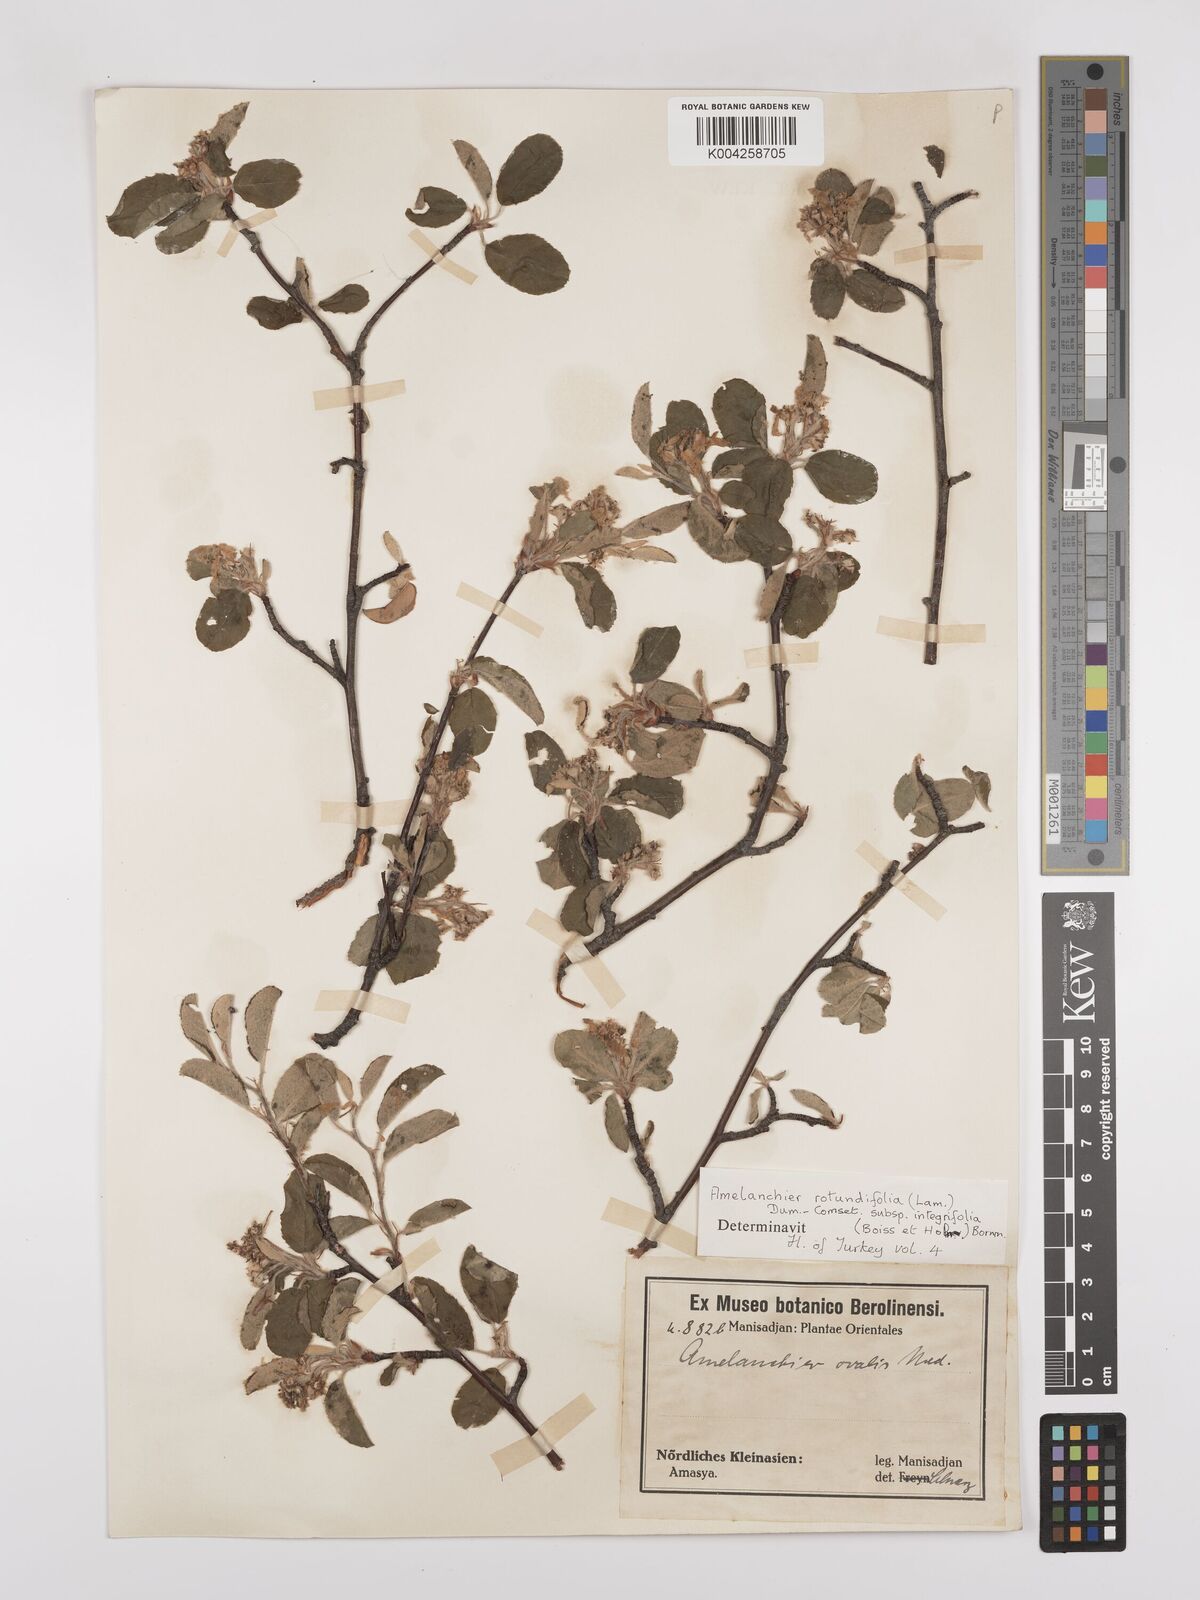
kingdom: Plantae
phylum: Tracheophyta
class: Magnoliopsida
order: Rosales
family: Rosaceae
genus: Amelanchier
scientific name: Amelanchier ovalis
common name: Serviceberry
